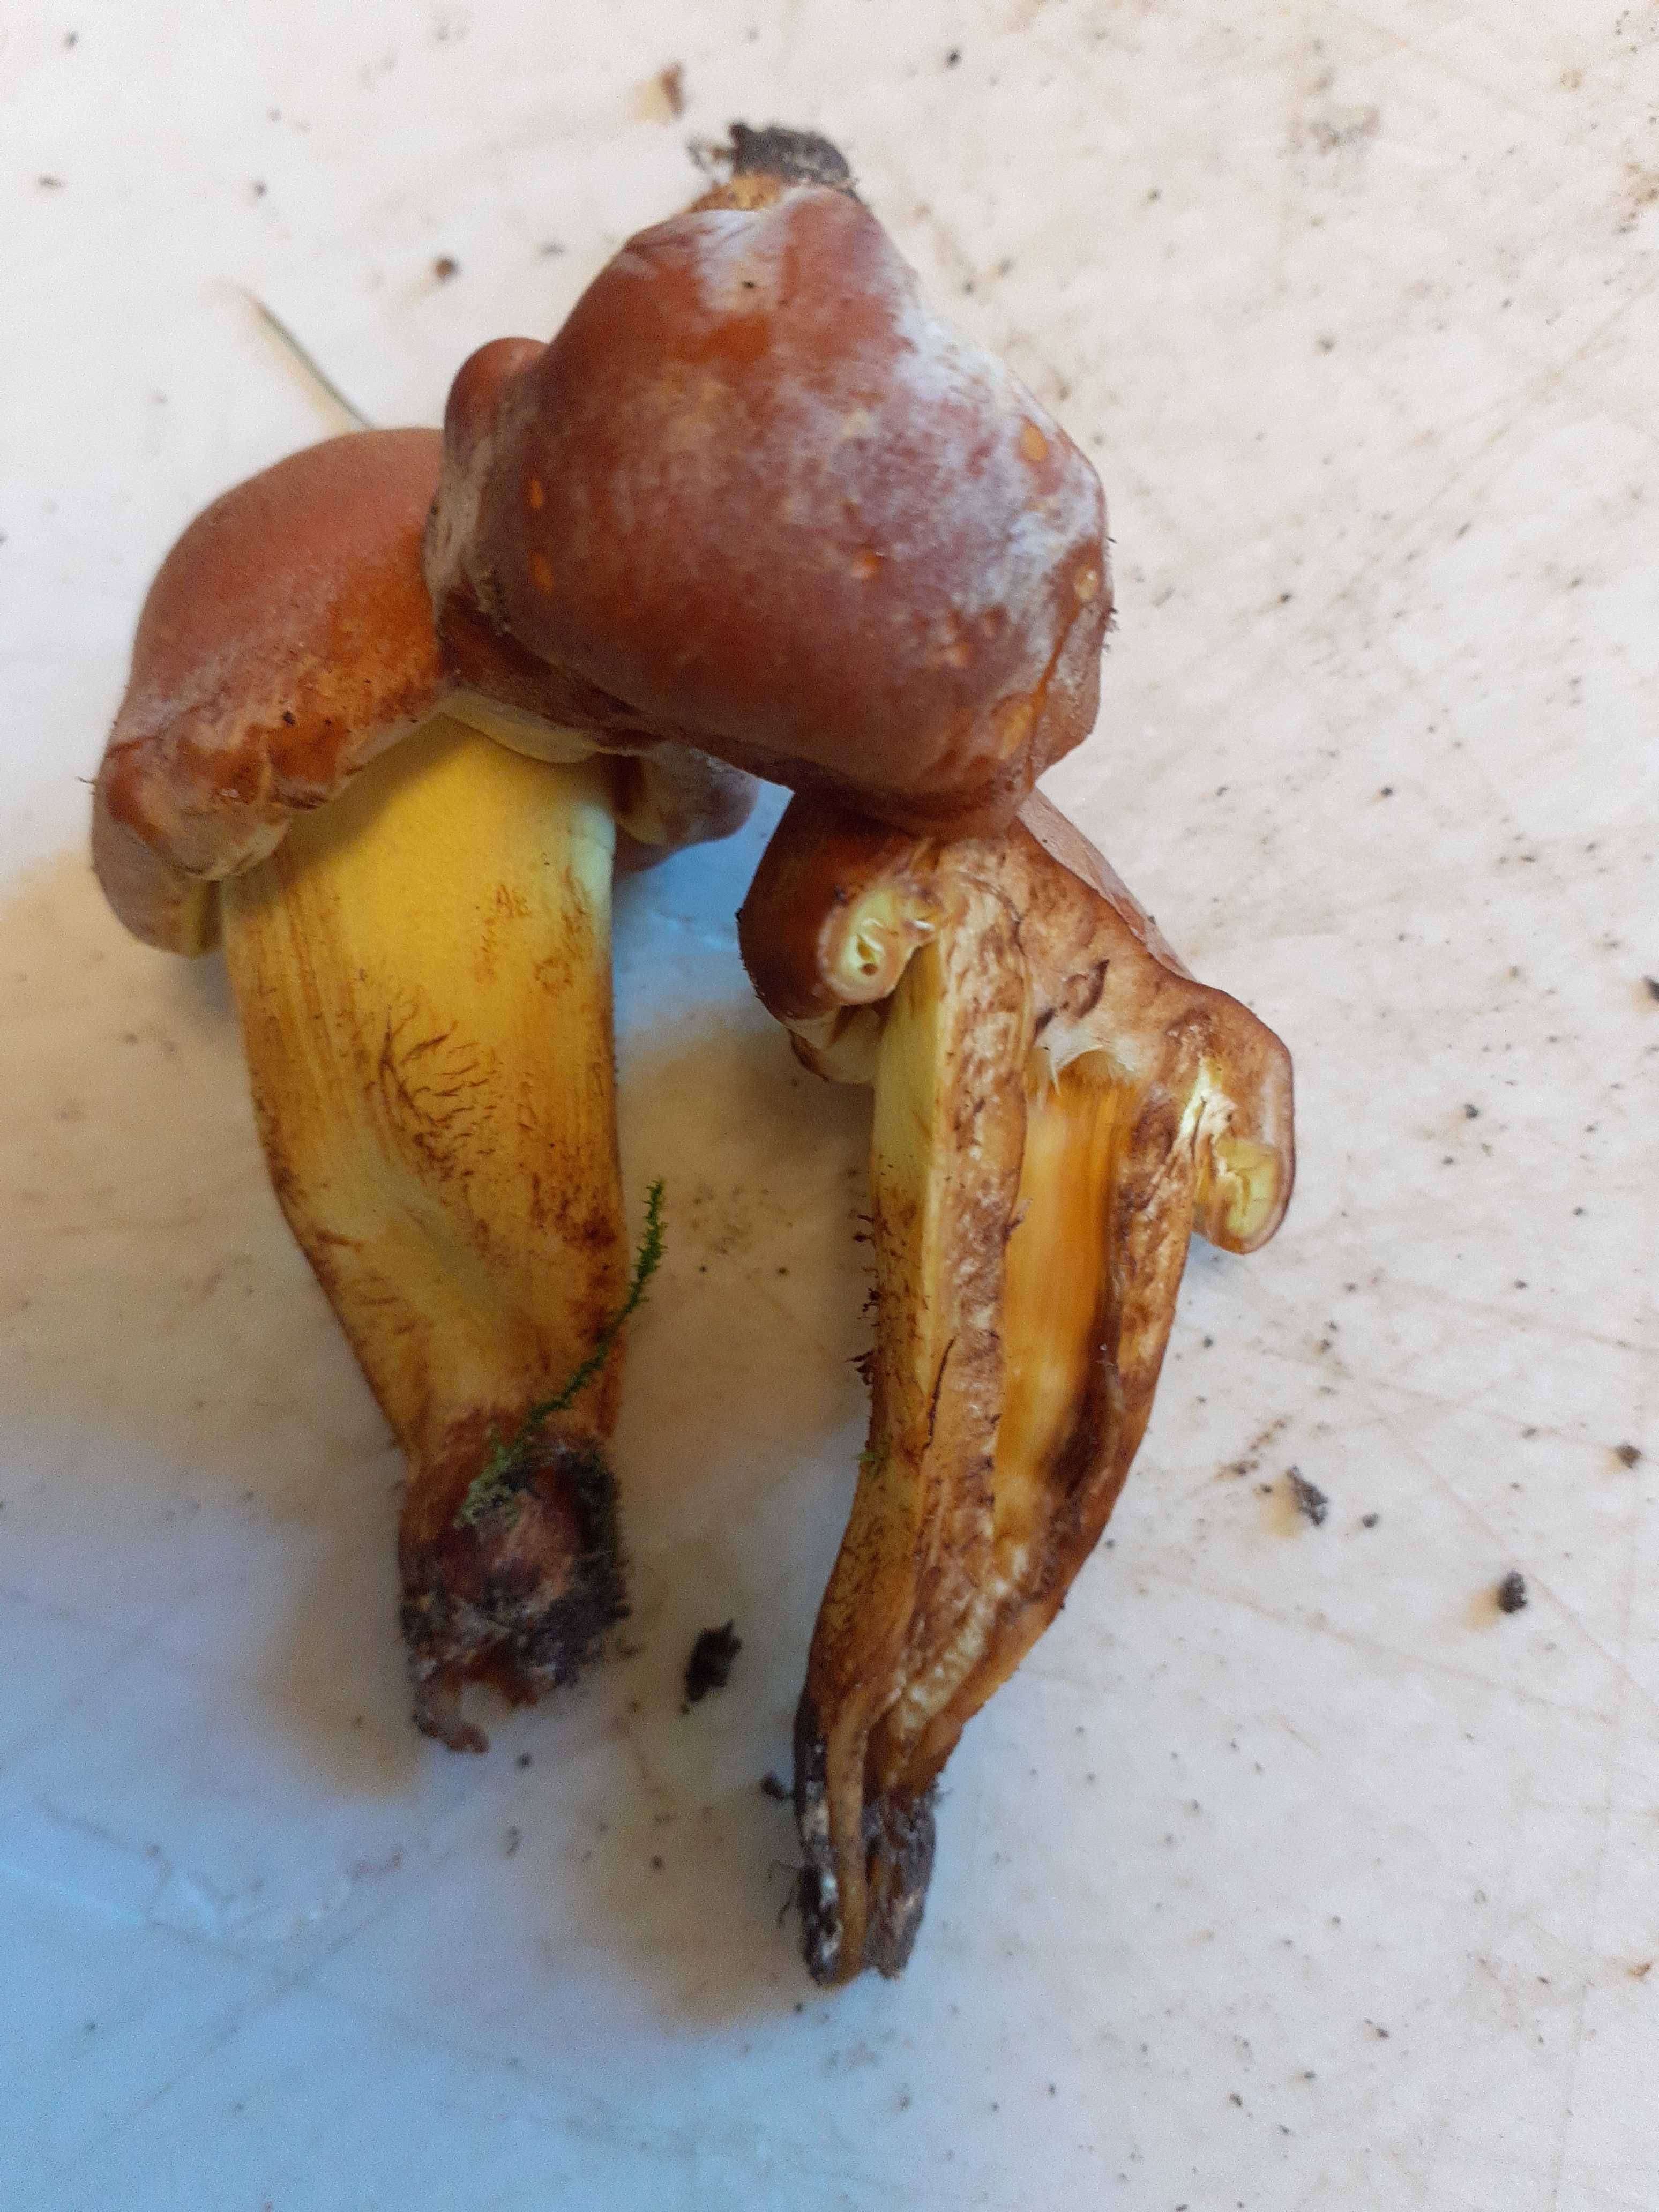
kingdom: Fungi
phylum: Basidiomycota
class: Agaricomycetes
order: Agaricales
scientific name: Agaricales
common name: champignonordenen
